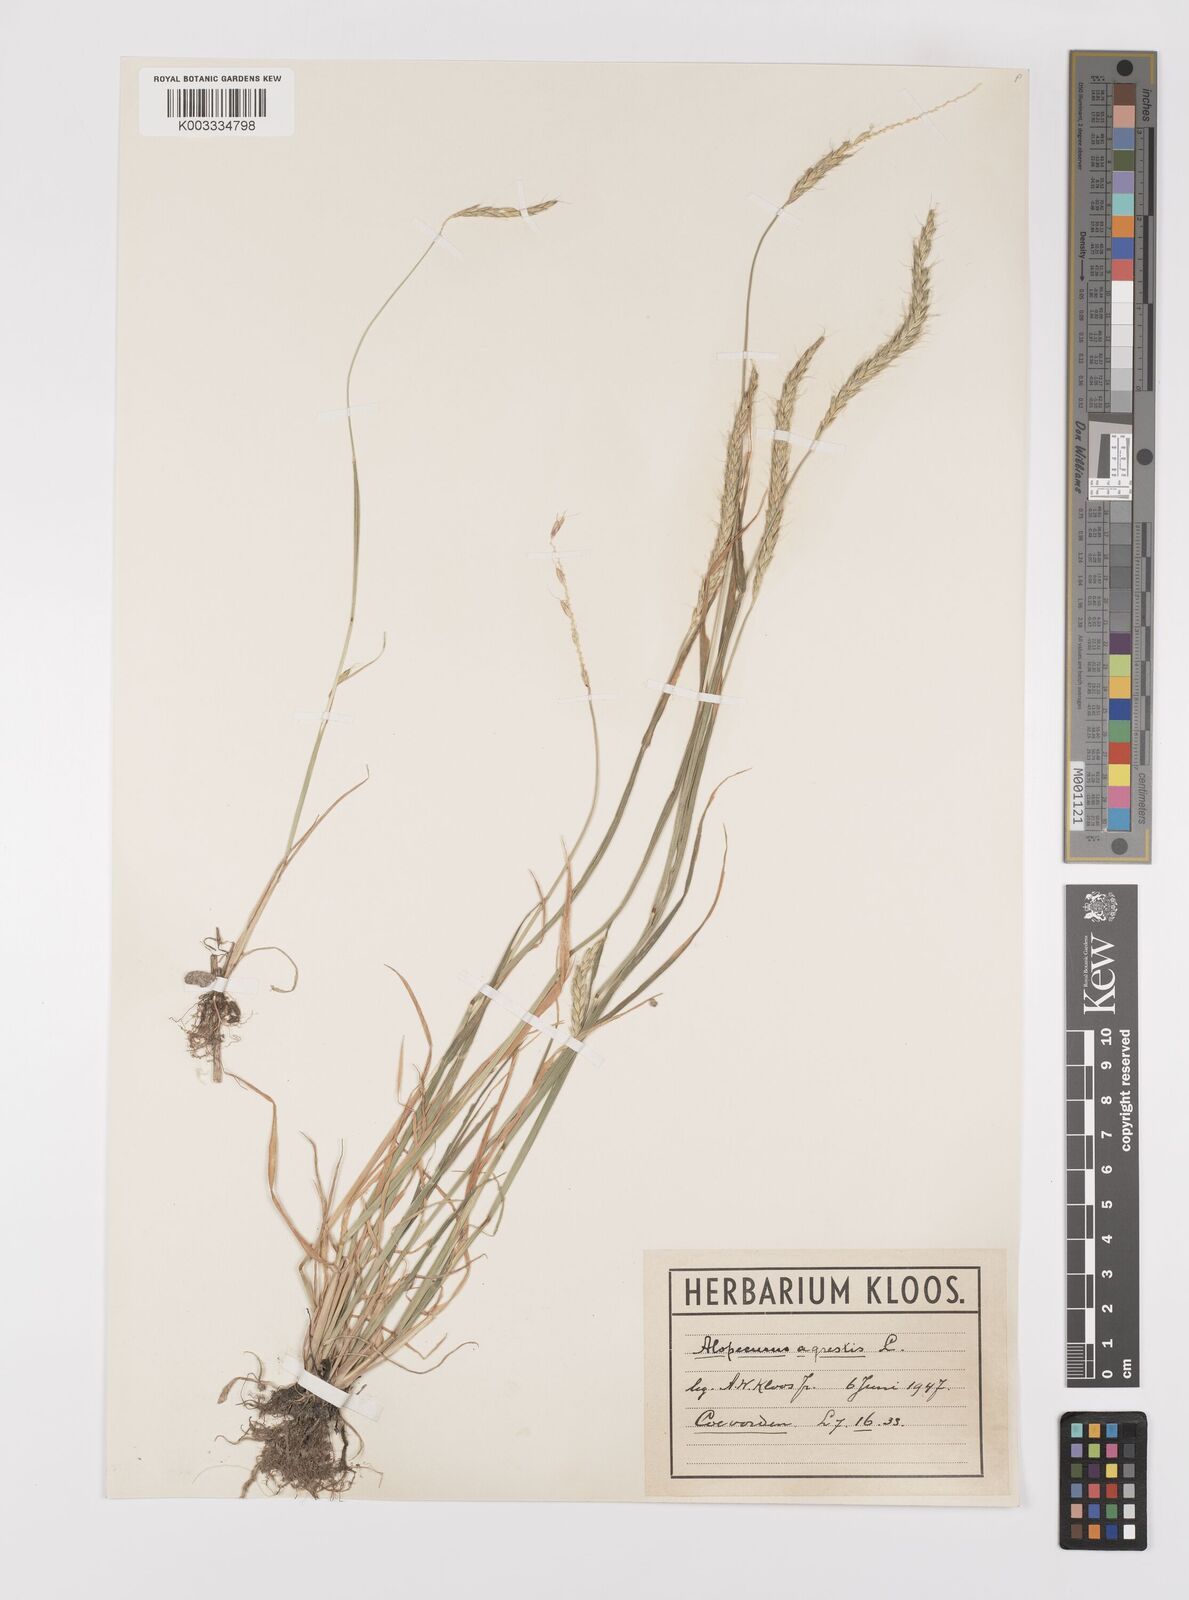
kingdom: Plantae
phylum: Tracheophyta
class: Liliopsida
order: Poales
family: Poaceae
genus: Alopecurus
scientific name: Alopecurus myosuroides
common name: Black-grass
